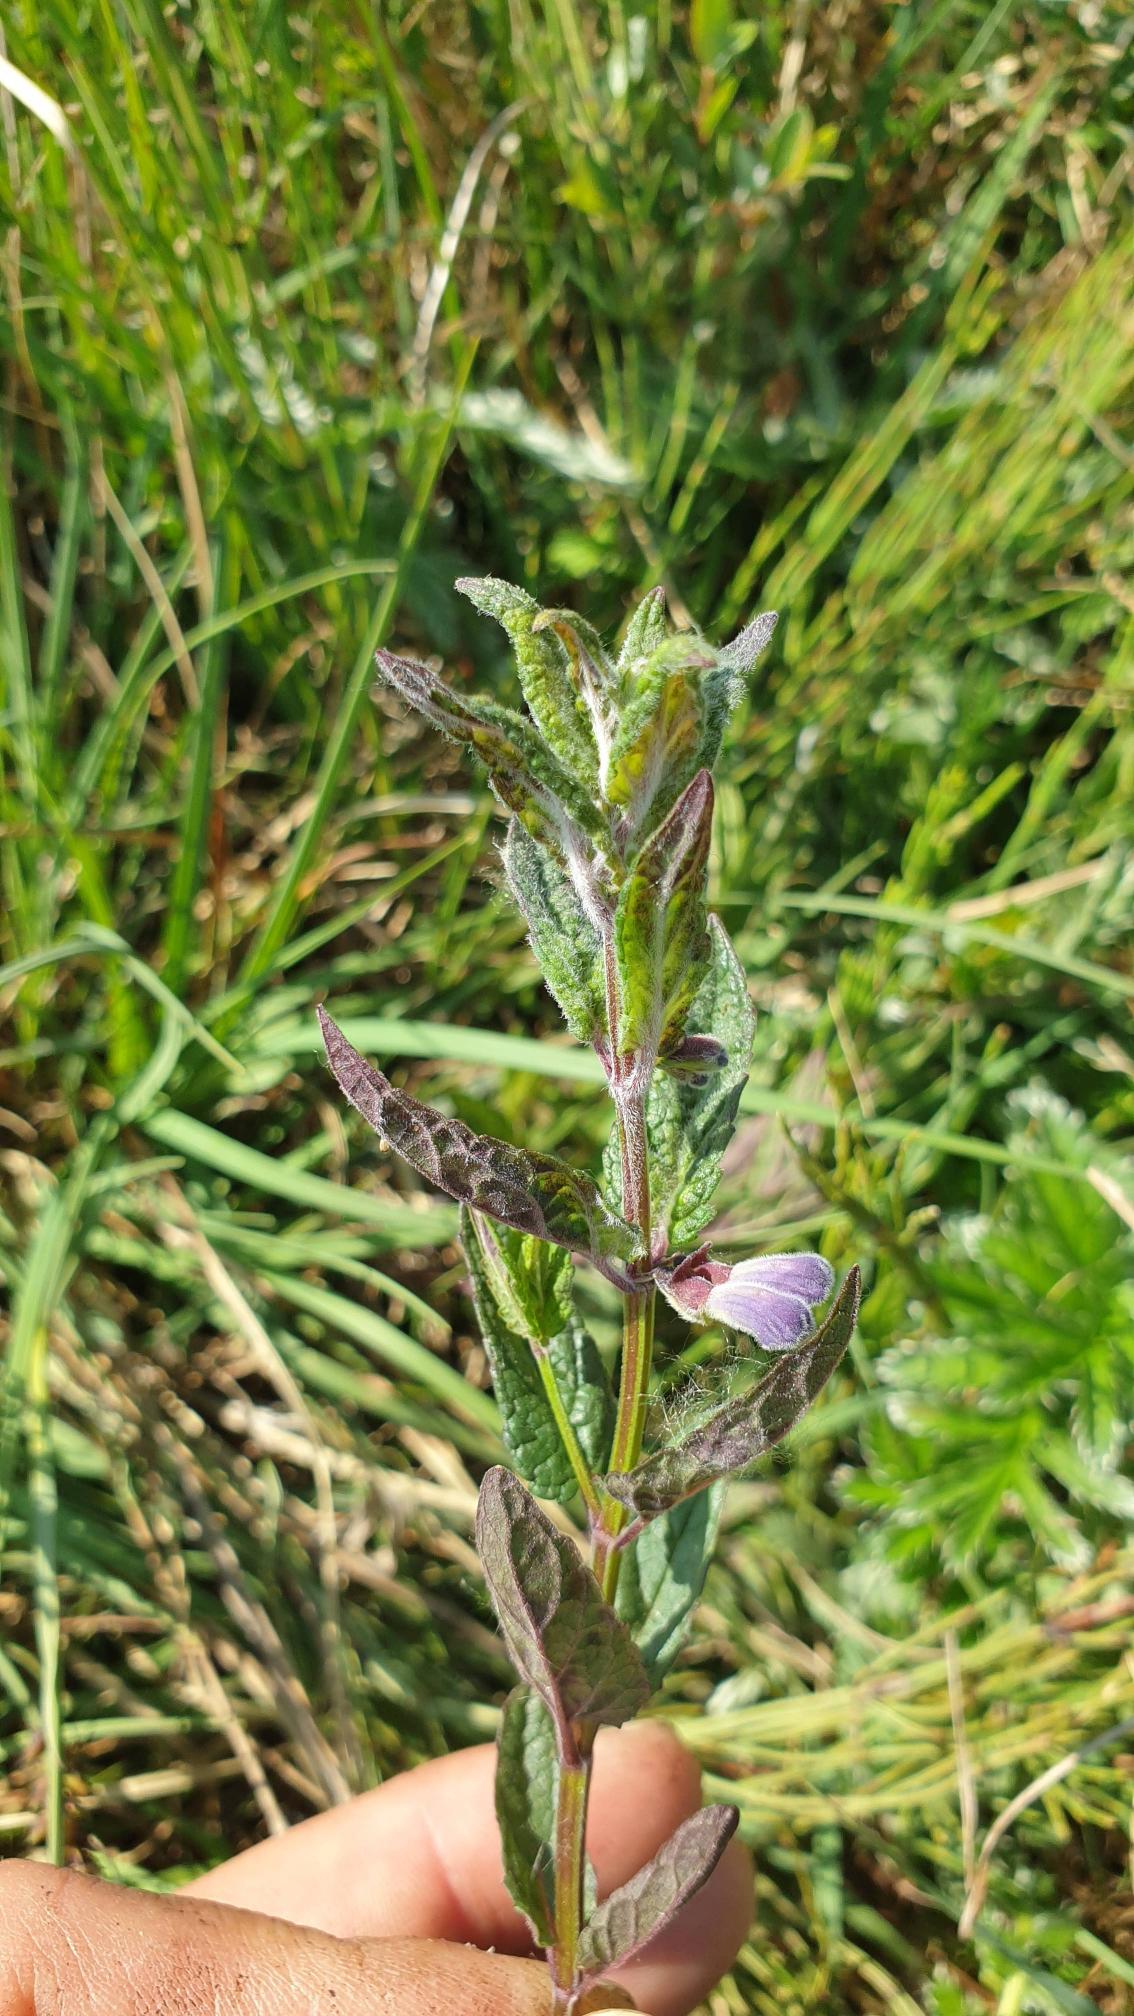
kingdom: Plantae
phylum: Tracheophyta
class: Magnoliopsida
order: Lamiales
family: Lamiaceae
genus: Scutellaria
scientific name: Scutellaria galericulata
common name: Almindelig skjolddrager
